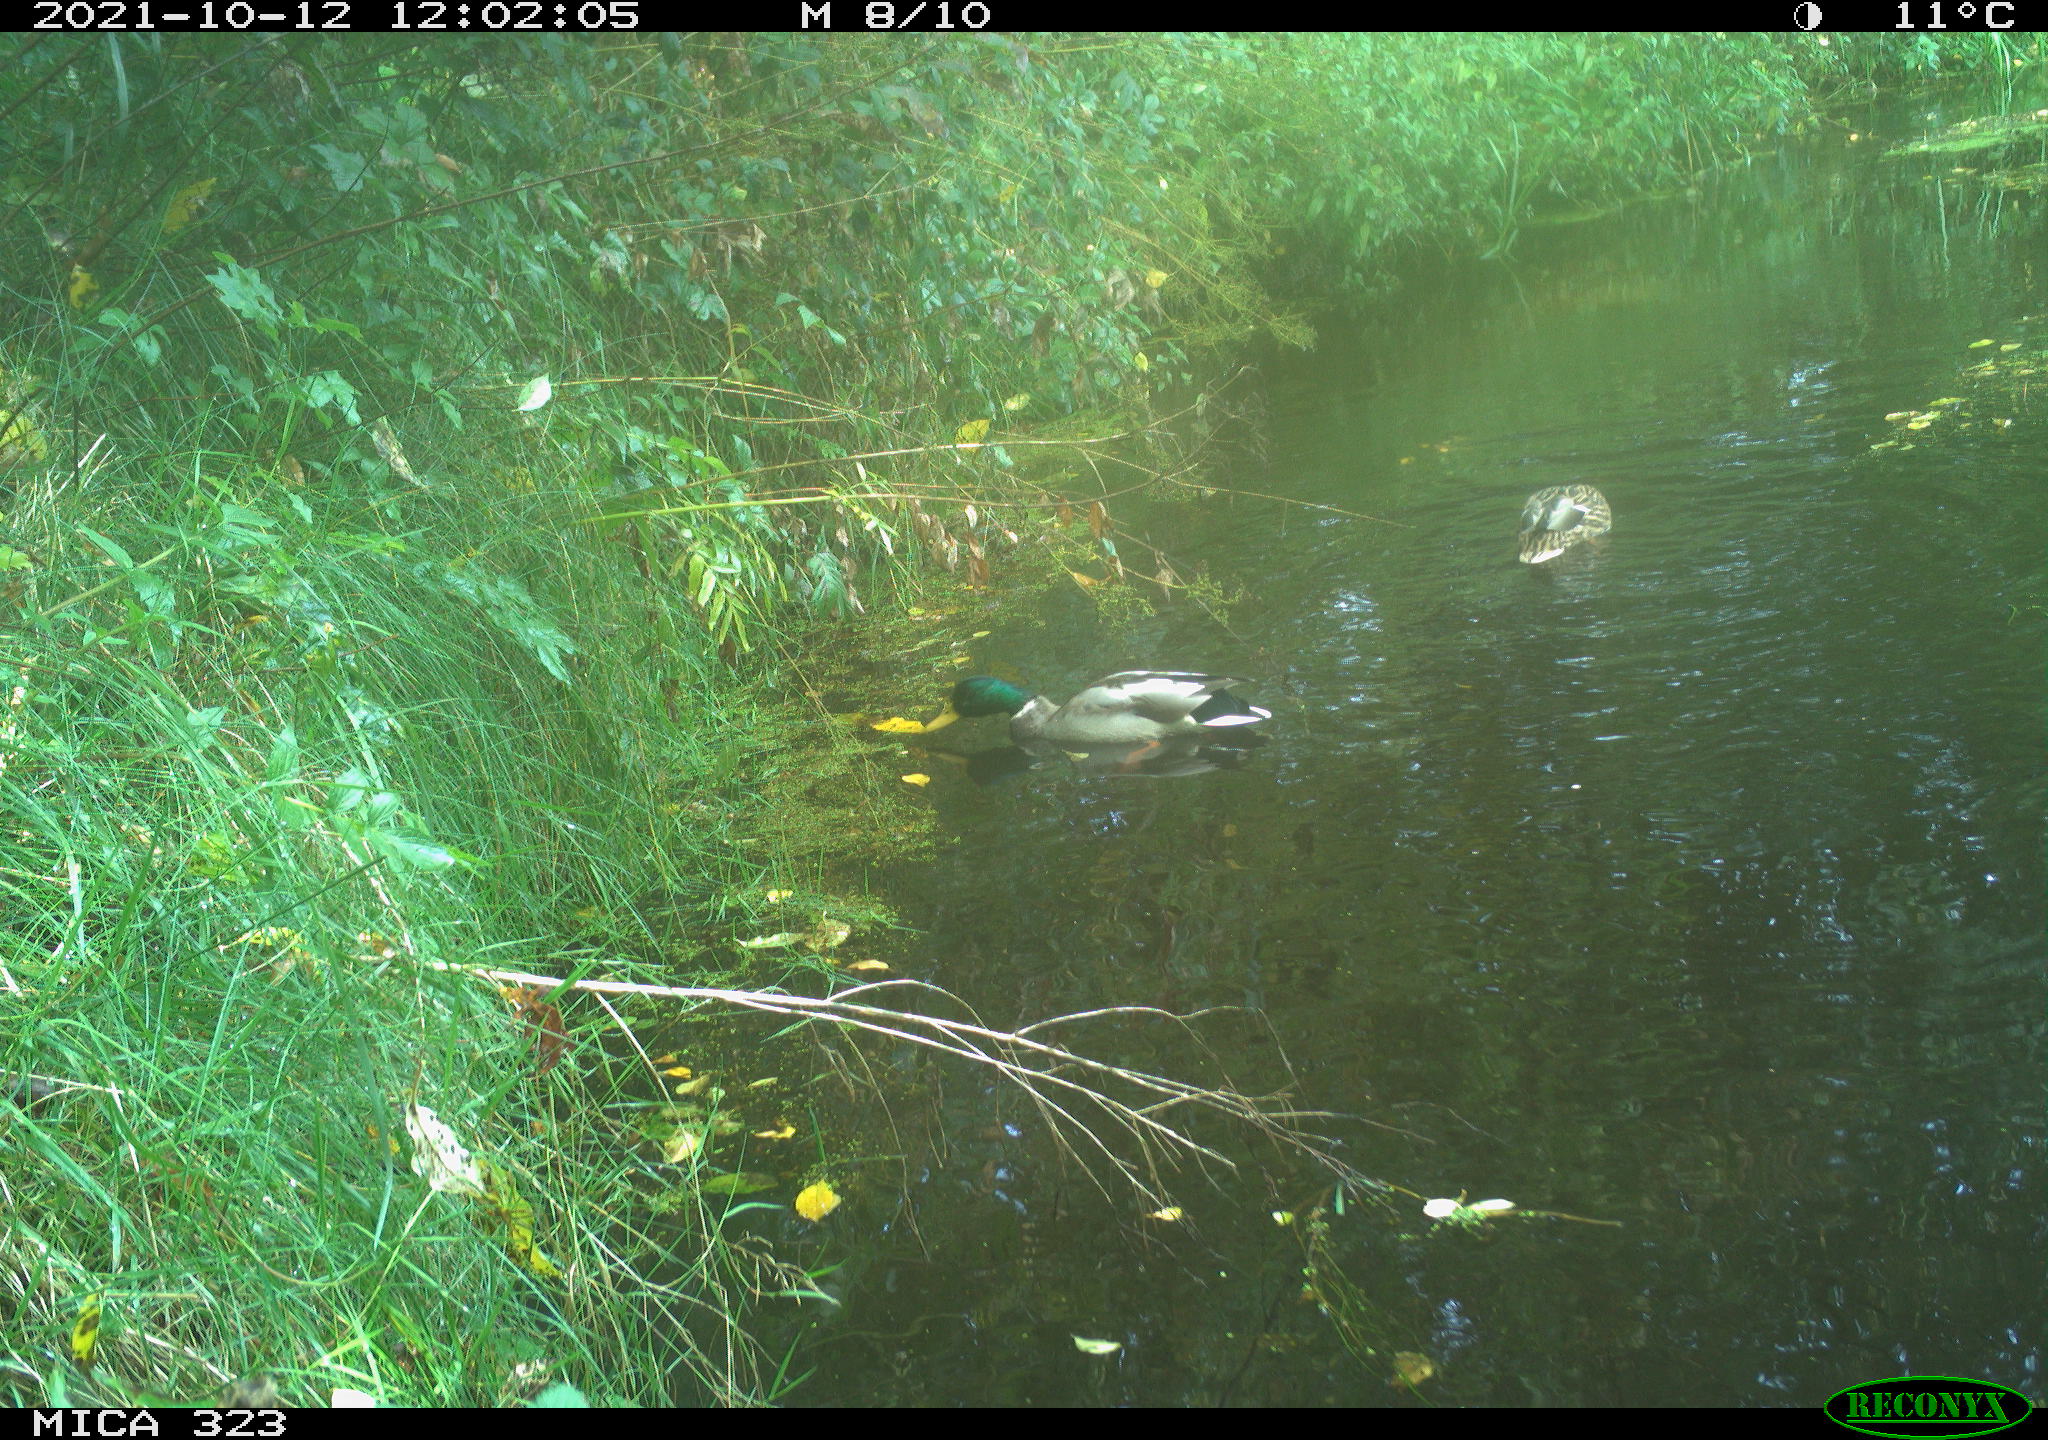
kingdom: Animalia
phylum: Chordata
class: Aves
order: Anseriformes
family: Anatidae
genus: Anas
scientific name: Anas platyrhynchos
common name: Mallard
